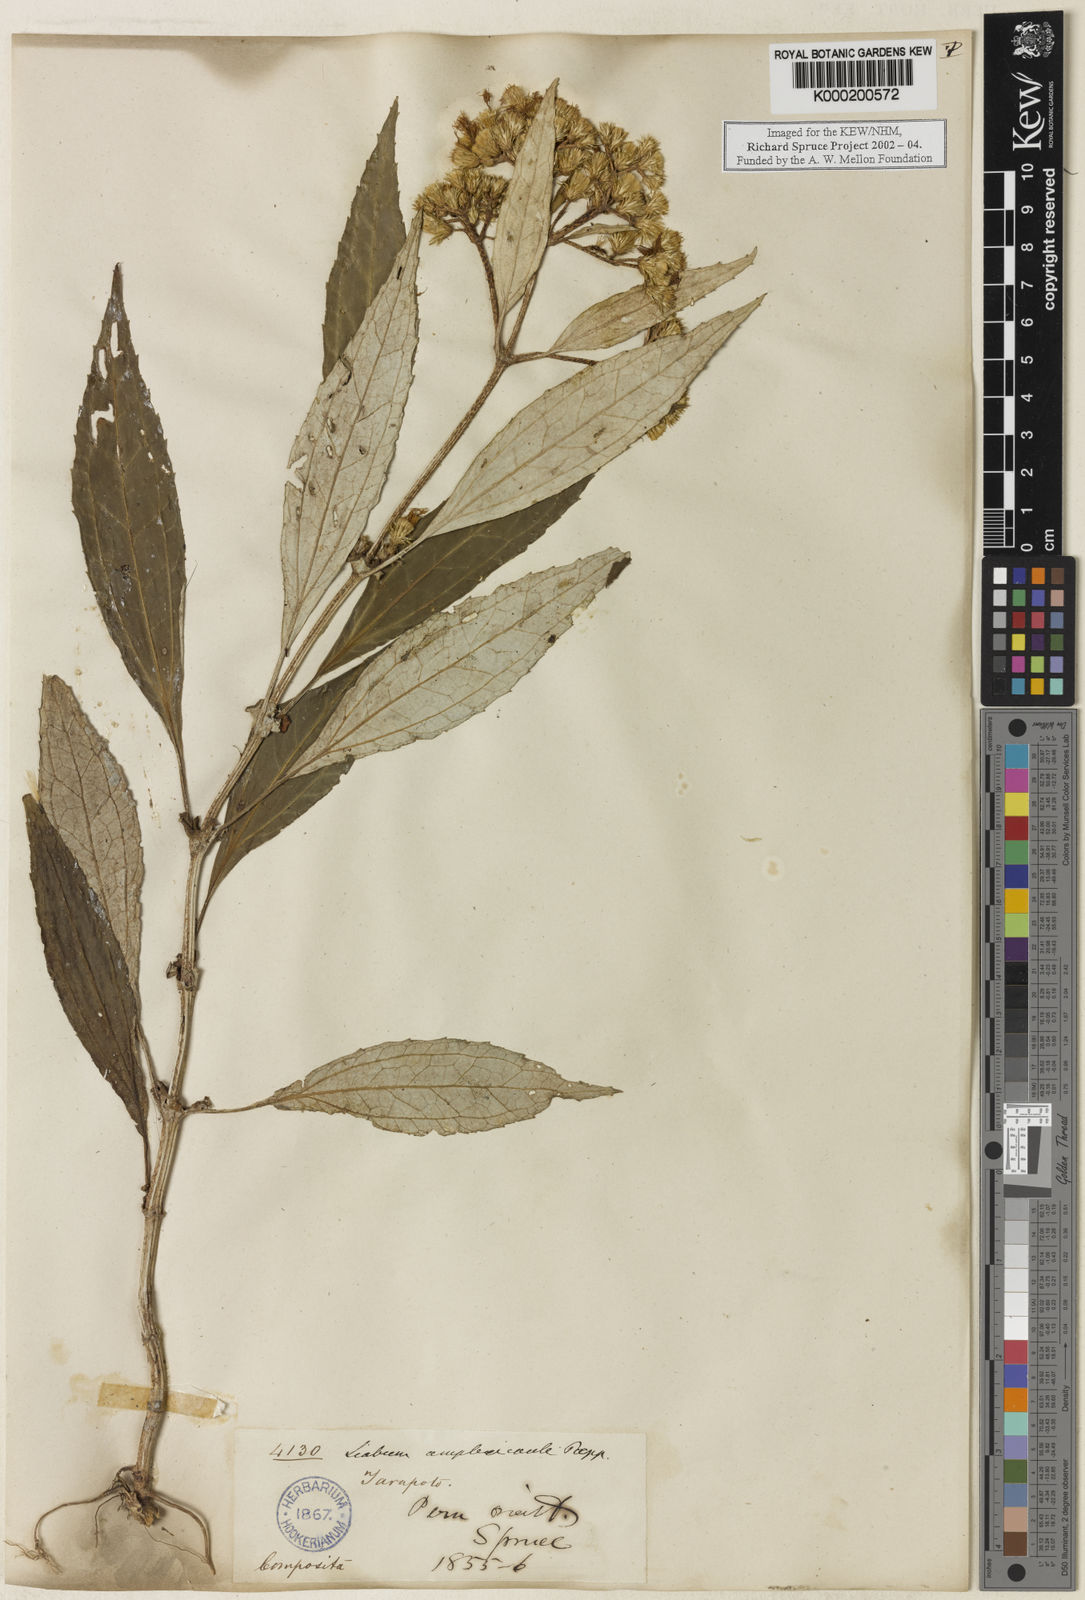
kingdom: Plantae
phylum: Tracheophyta
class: Magnoliopsida
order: Asterales
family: Asteraceae
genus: Liabum
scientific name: Liabum amplexicaule
